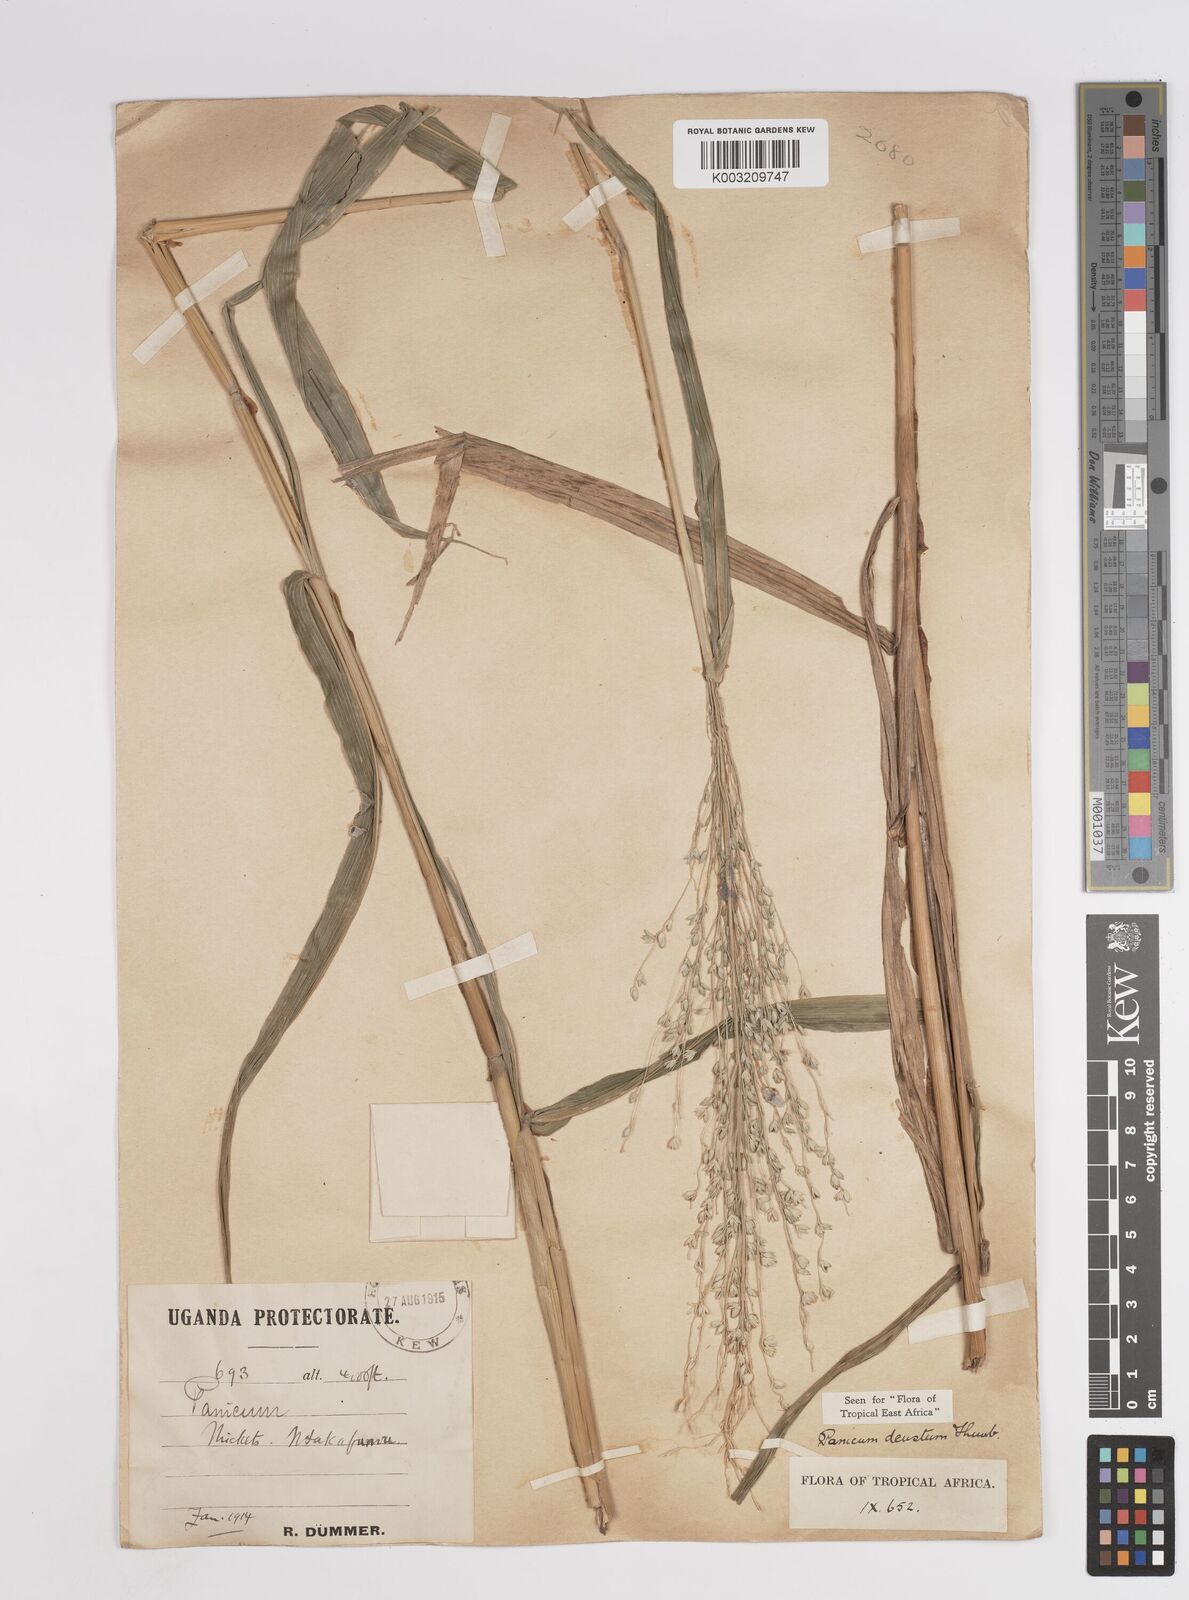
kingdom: Plantae
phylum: Tracheophyta
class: Liliopsida
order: Poales
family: Poaceae
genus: Panicum
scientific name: Panicum
